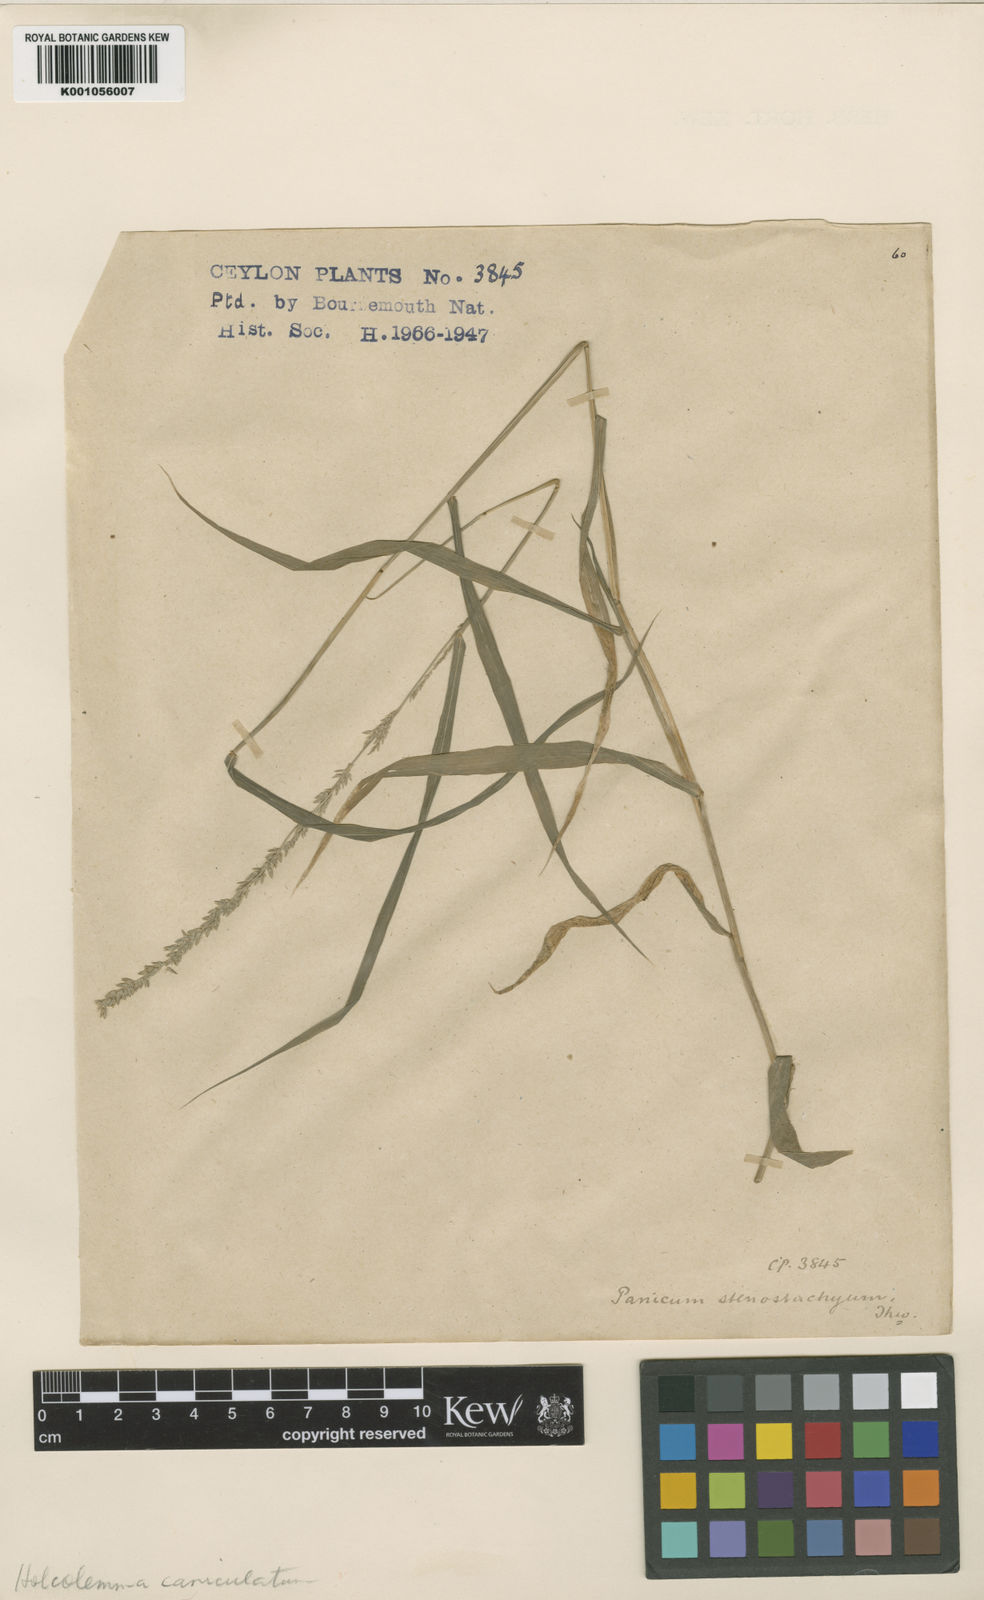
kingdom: Plantae
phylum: Tracheophyta
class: Liliopsida
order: Poales
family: Poaceae
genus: Holcolemma
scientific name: Holcolemma canaliculatum
